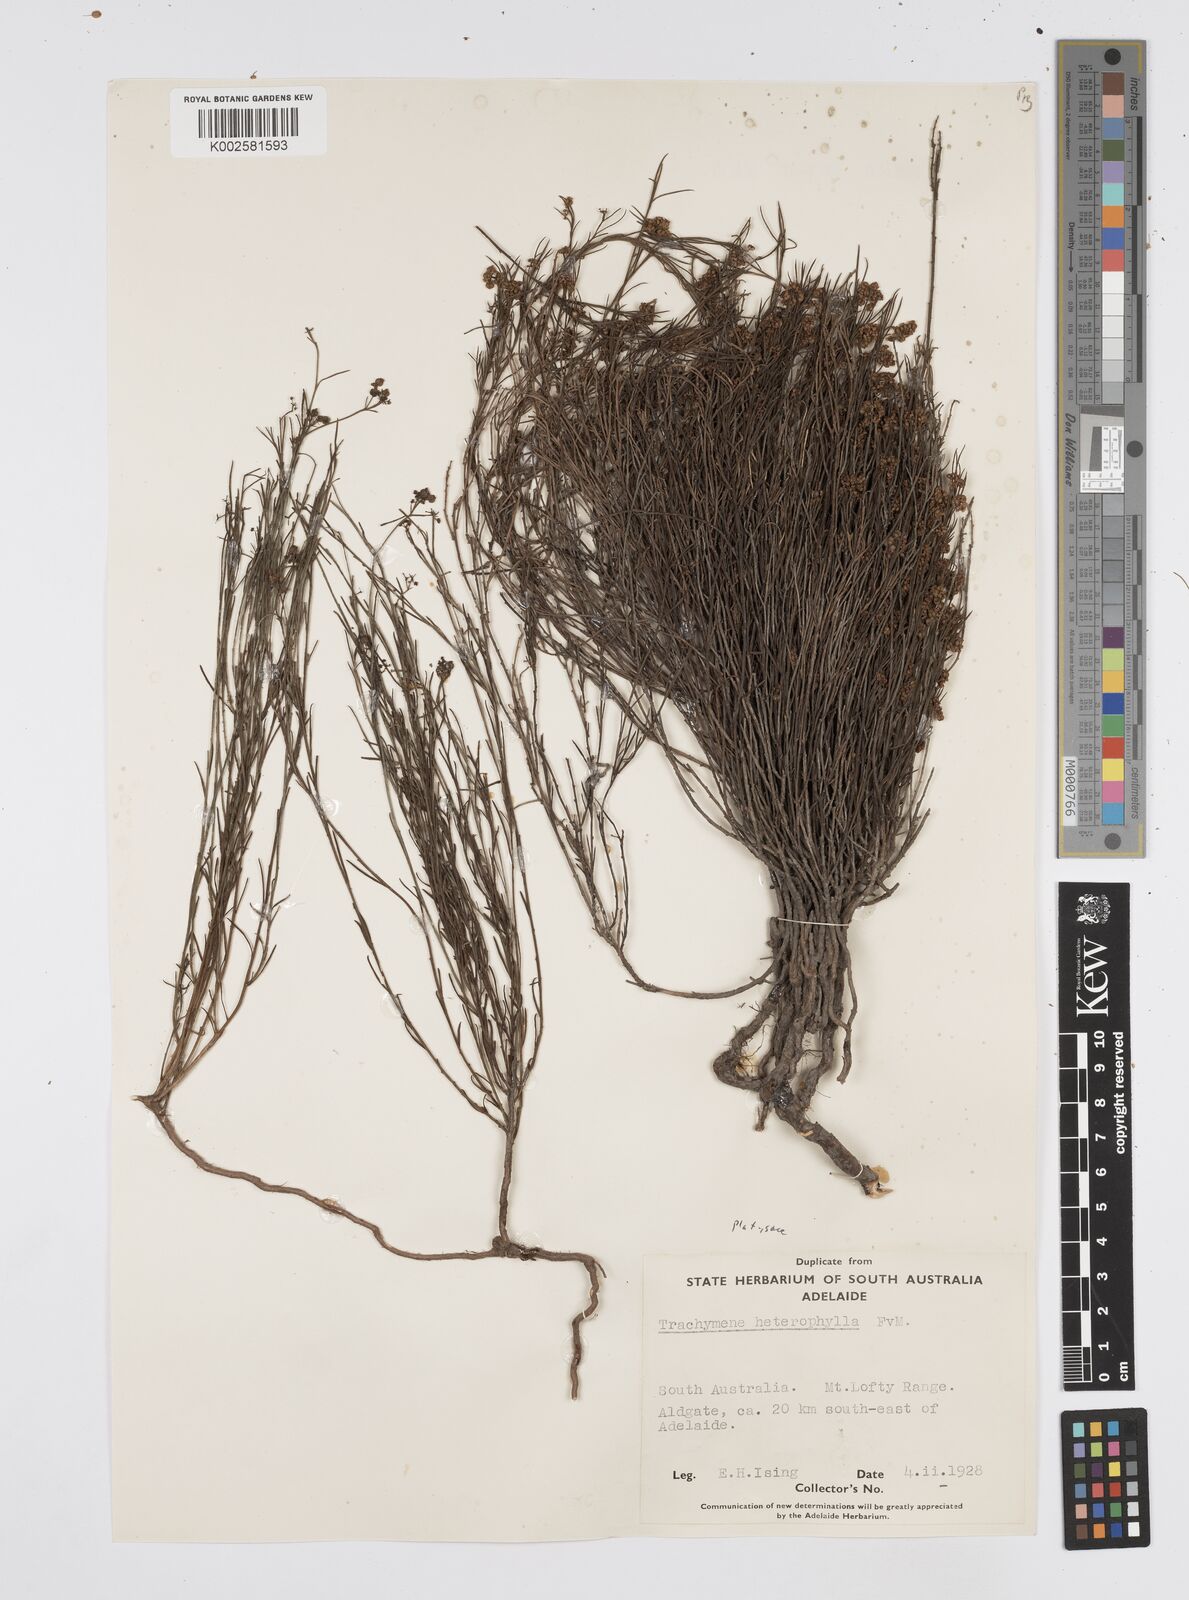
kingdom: Plantae
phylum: Tracheophyta
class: Magnoliopsida
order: Apiales
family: Apiaceae
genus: Platysace
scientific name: Platysace heterophylla
